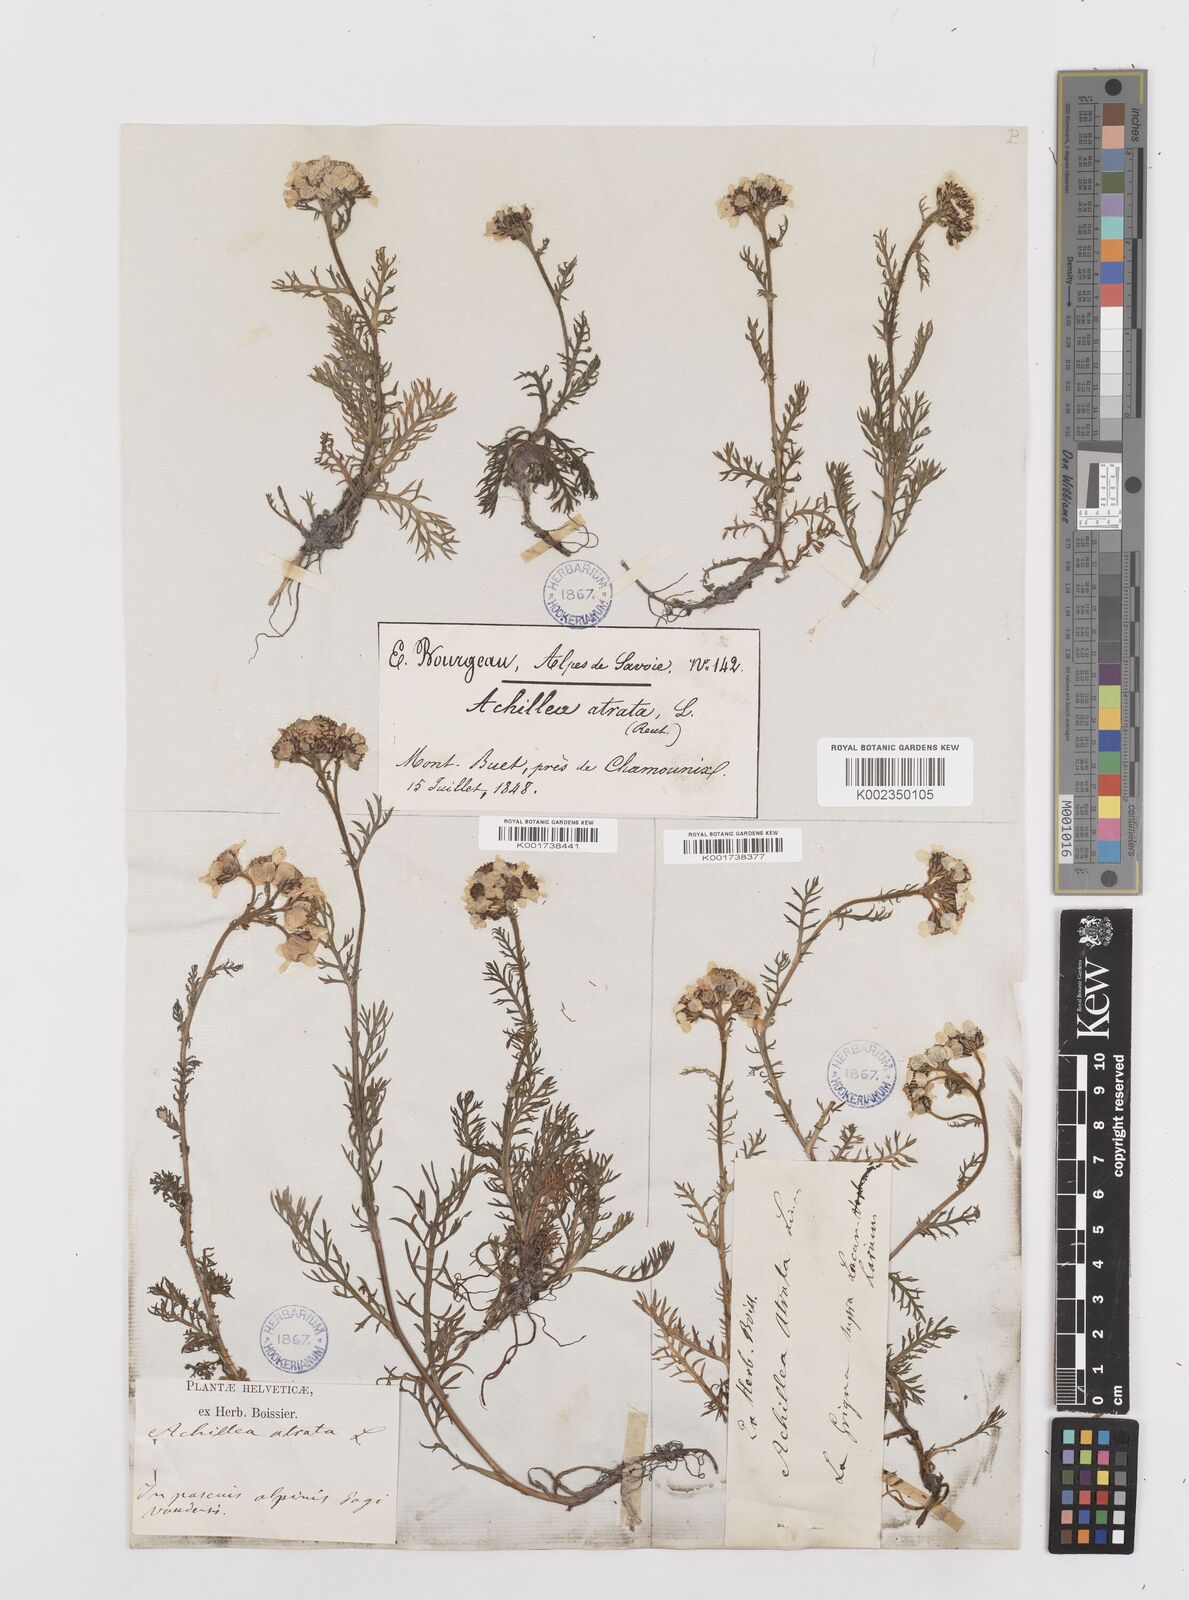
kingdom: Plantae
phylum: Tracheophyta
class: Magnoliopsida
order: Asterales
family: Asteraceae
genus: Achillea
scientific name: Achillea atrata
